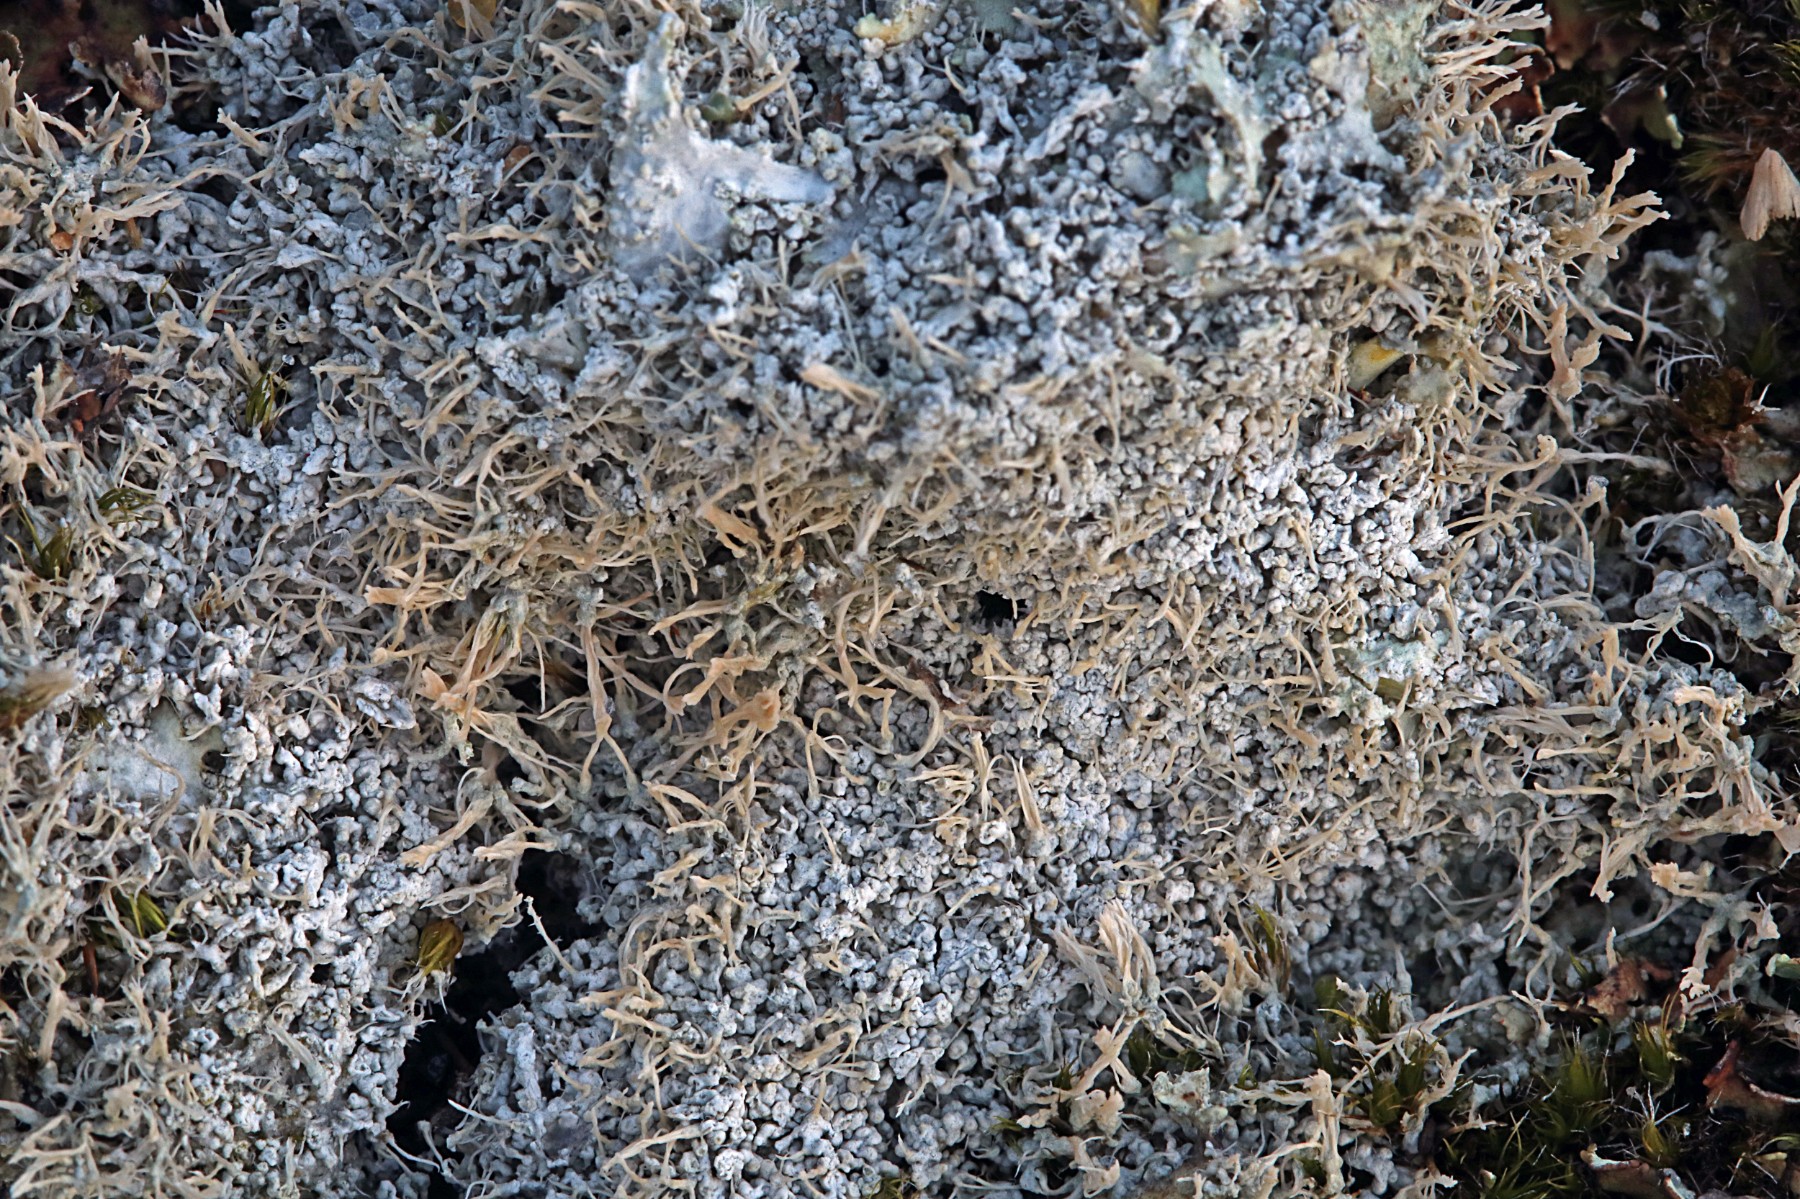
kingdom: Fungi
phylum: Ascomycota
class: Lecanoromycetes
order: Pertusariales
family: Ochrolechiaceae
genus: Ochrolechia
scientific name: Ochrolechia frigida
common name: fjeld-blegskivelav
